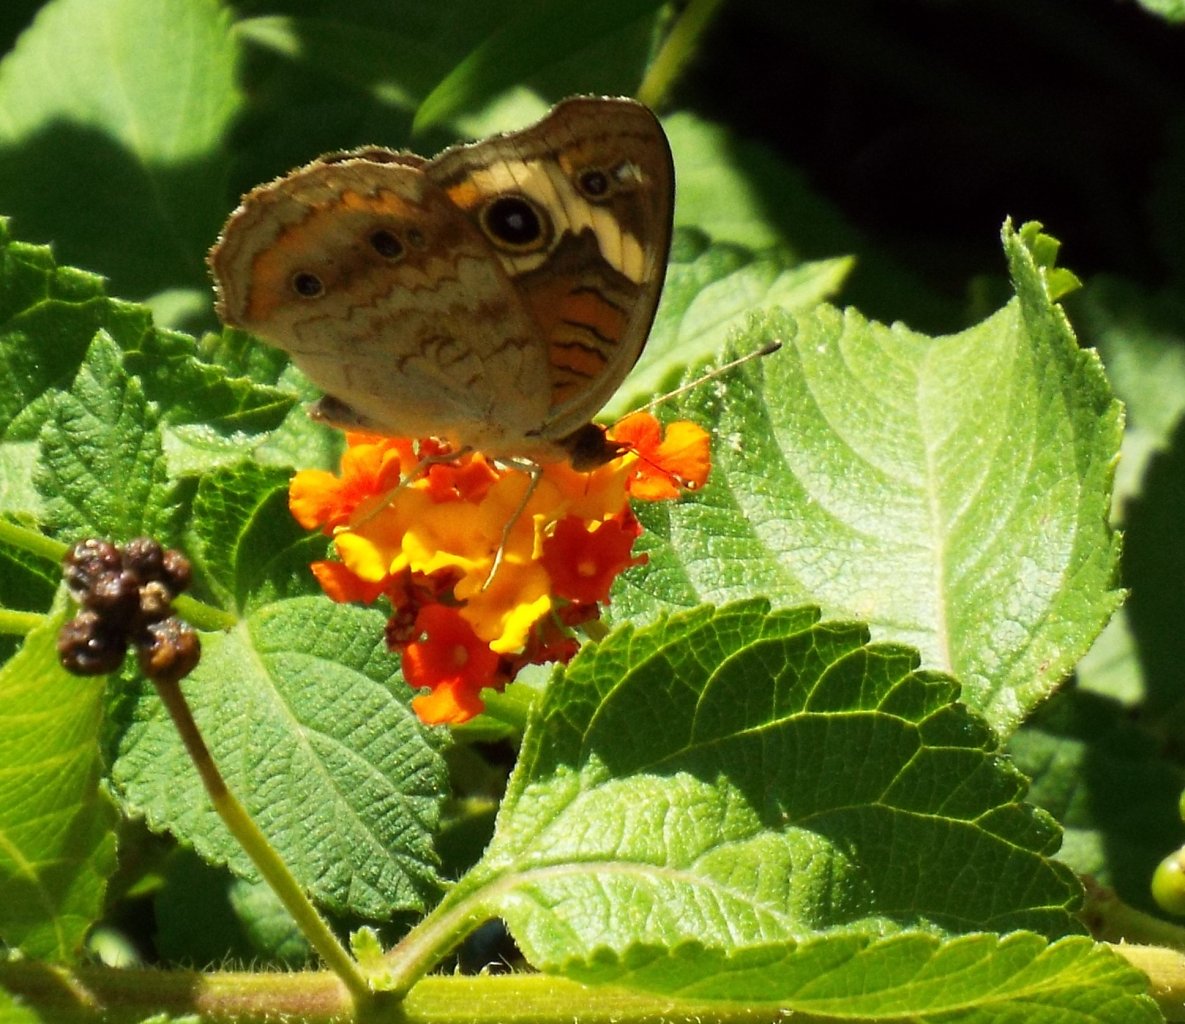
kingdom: Animalia
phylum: Arthropoda
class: Insecta
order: Lepidoptera
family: Nymphalidae
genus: Junonia
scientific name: Junonia coenia
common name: Common Buckeye
